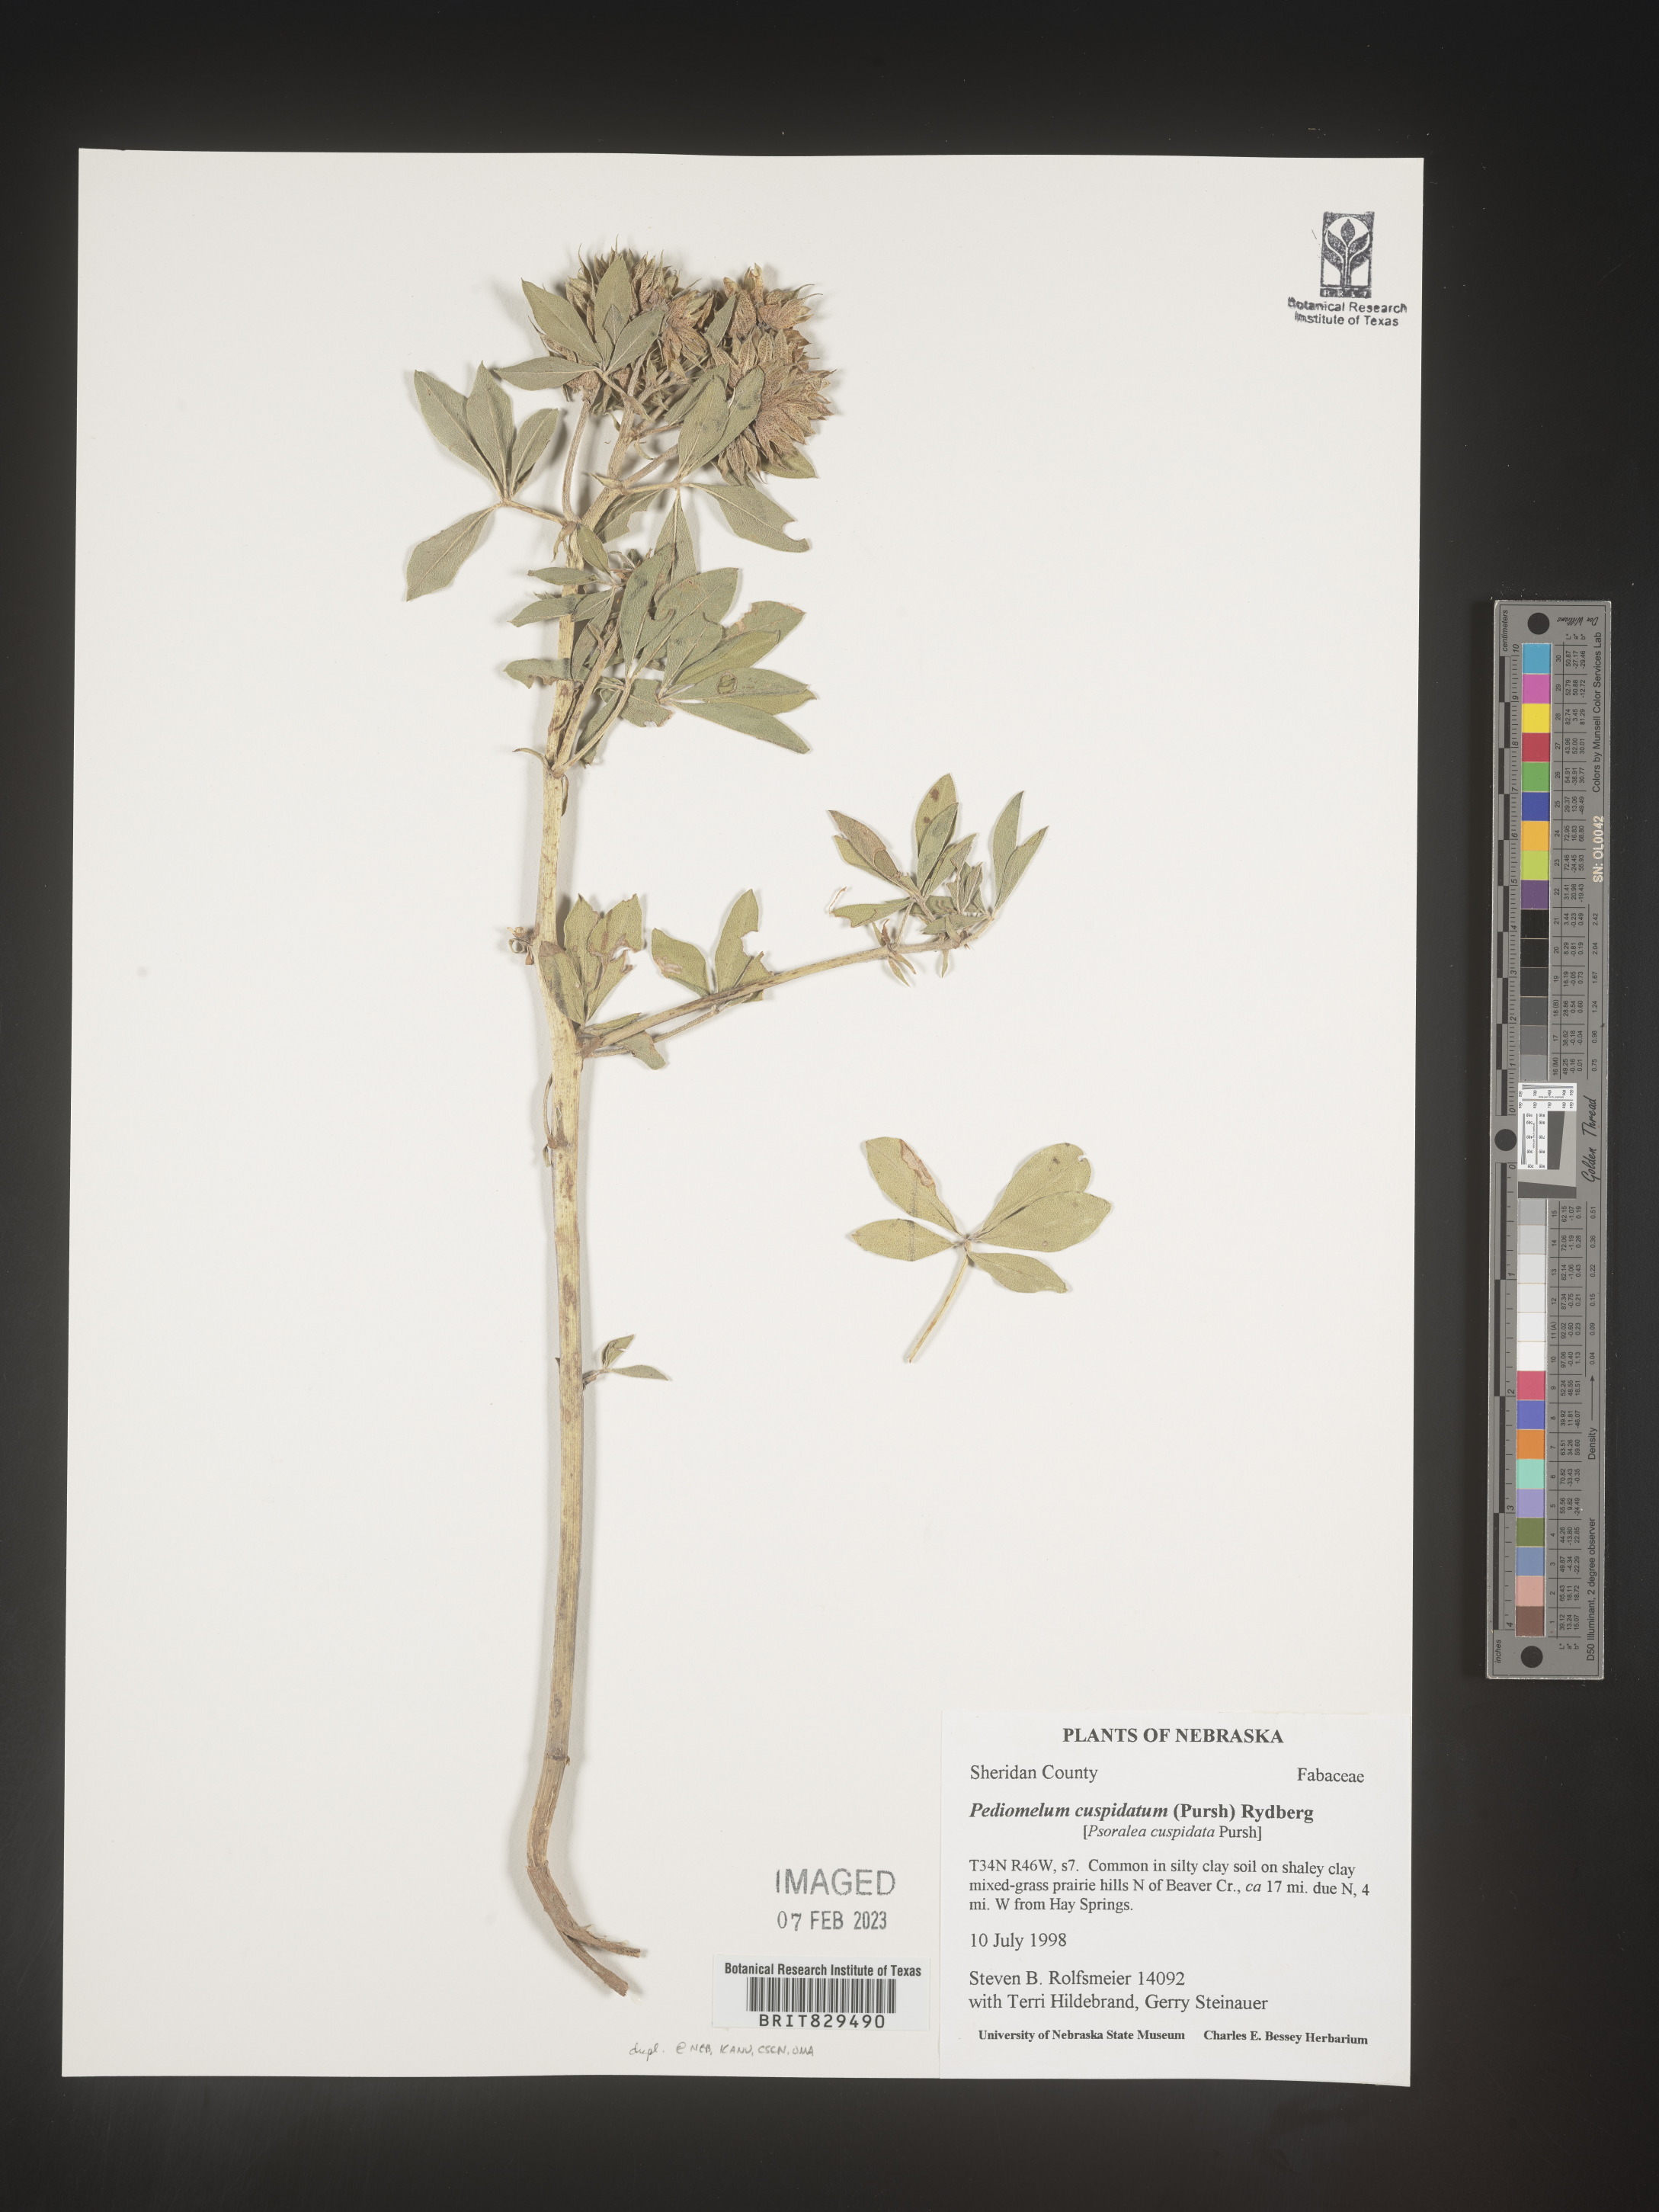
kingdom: Plantae
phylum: Tracheophyta
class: Magnoliopsida
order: Fabales
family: Fabaceae
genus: Pediomelum
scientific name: Pediomelum cuspidatum
